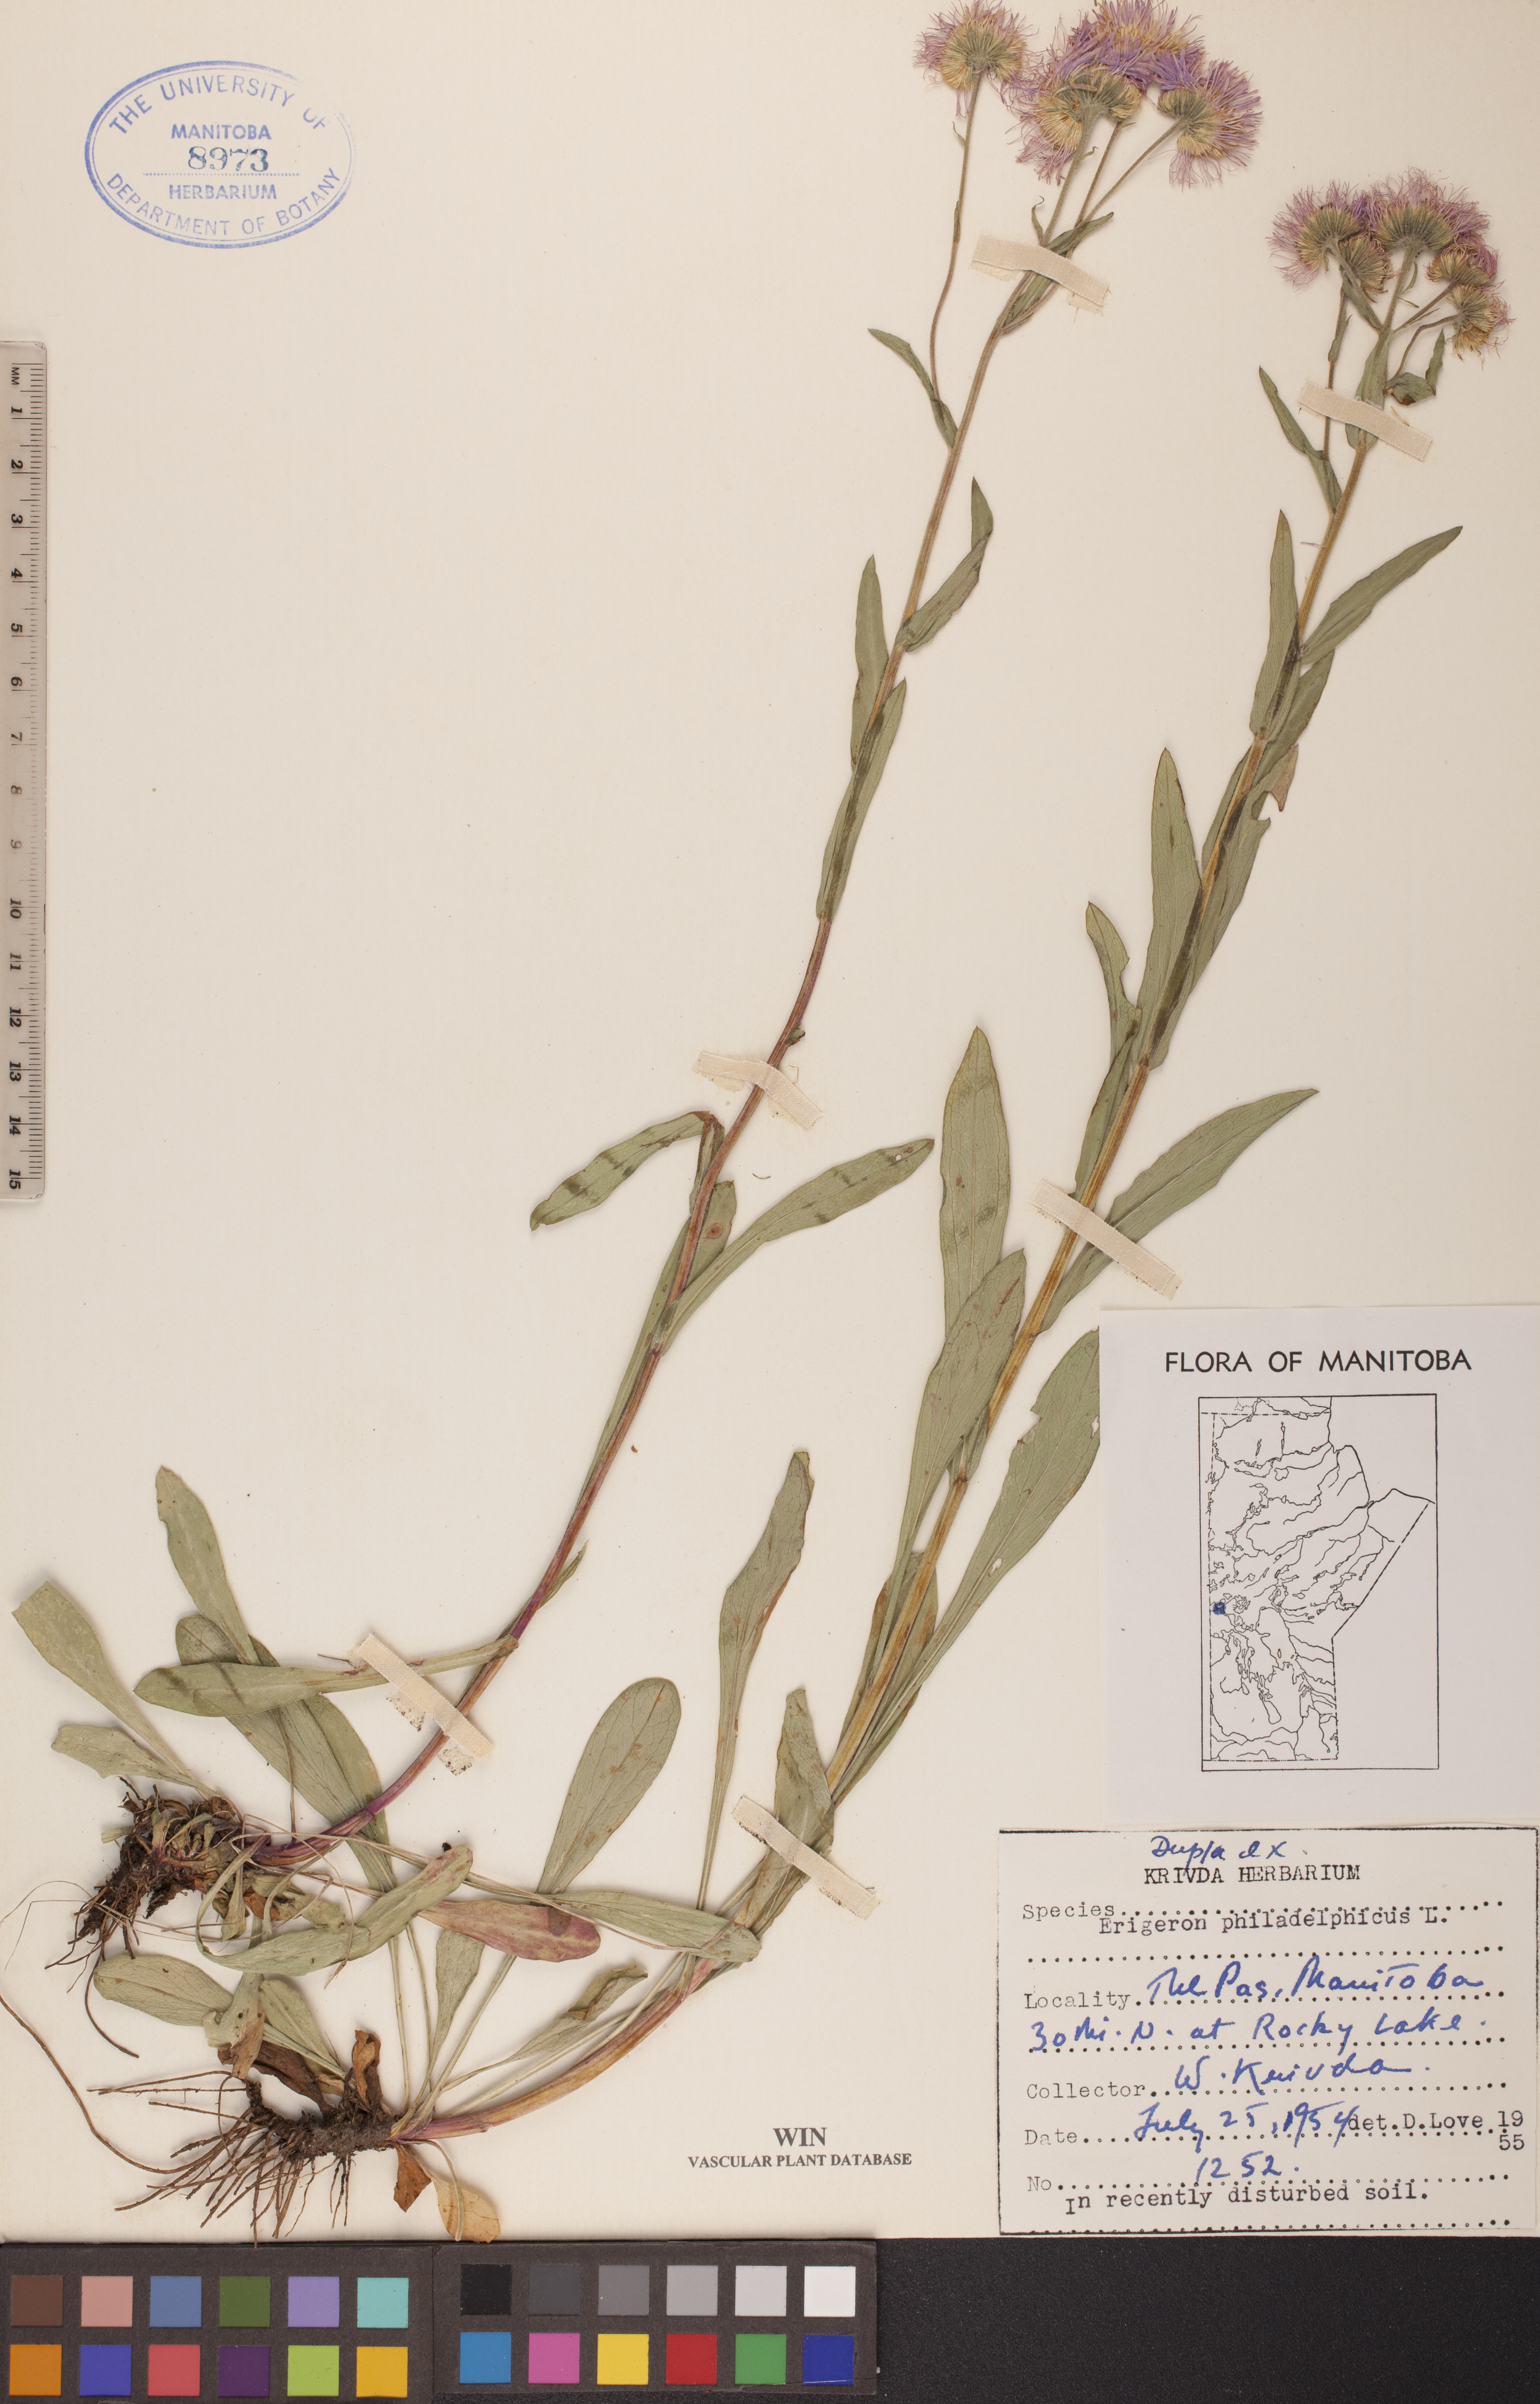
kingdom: Plantae
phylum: Tracheophyta
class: Magnoliopsida
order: Asterales
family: Asteraceae
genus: Erigeron
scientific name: Erigeron philadelphicus
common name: Robin's-plantain
